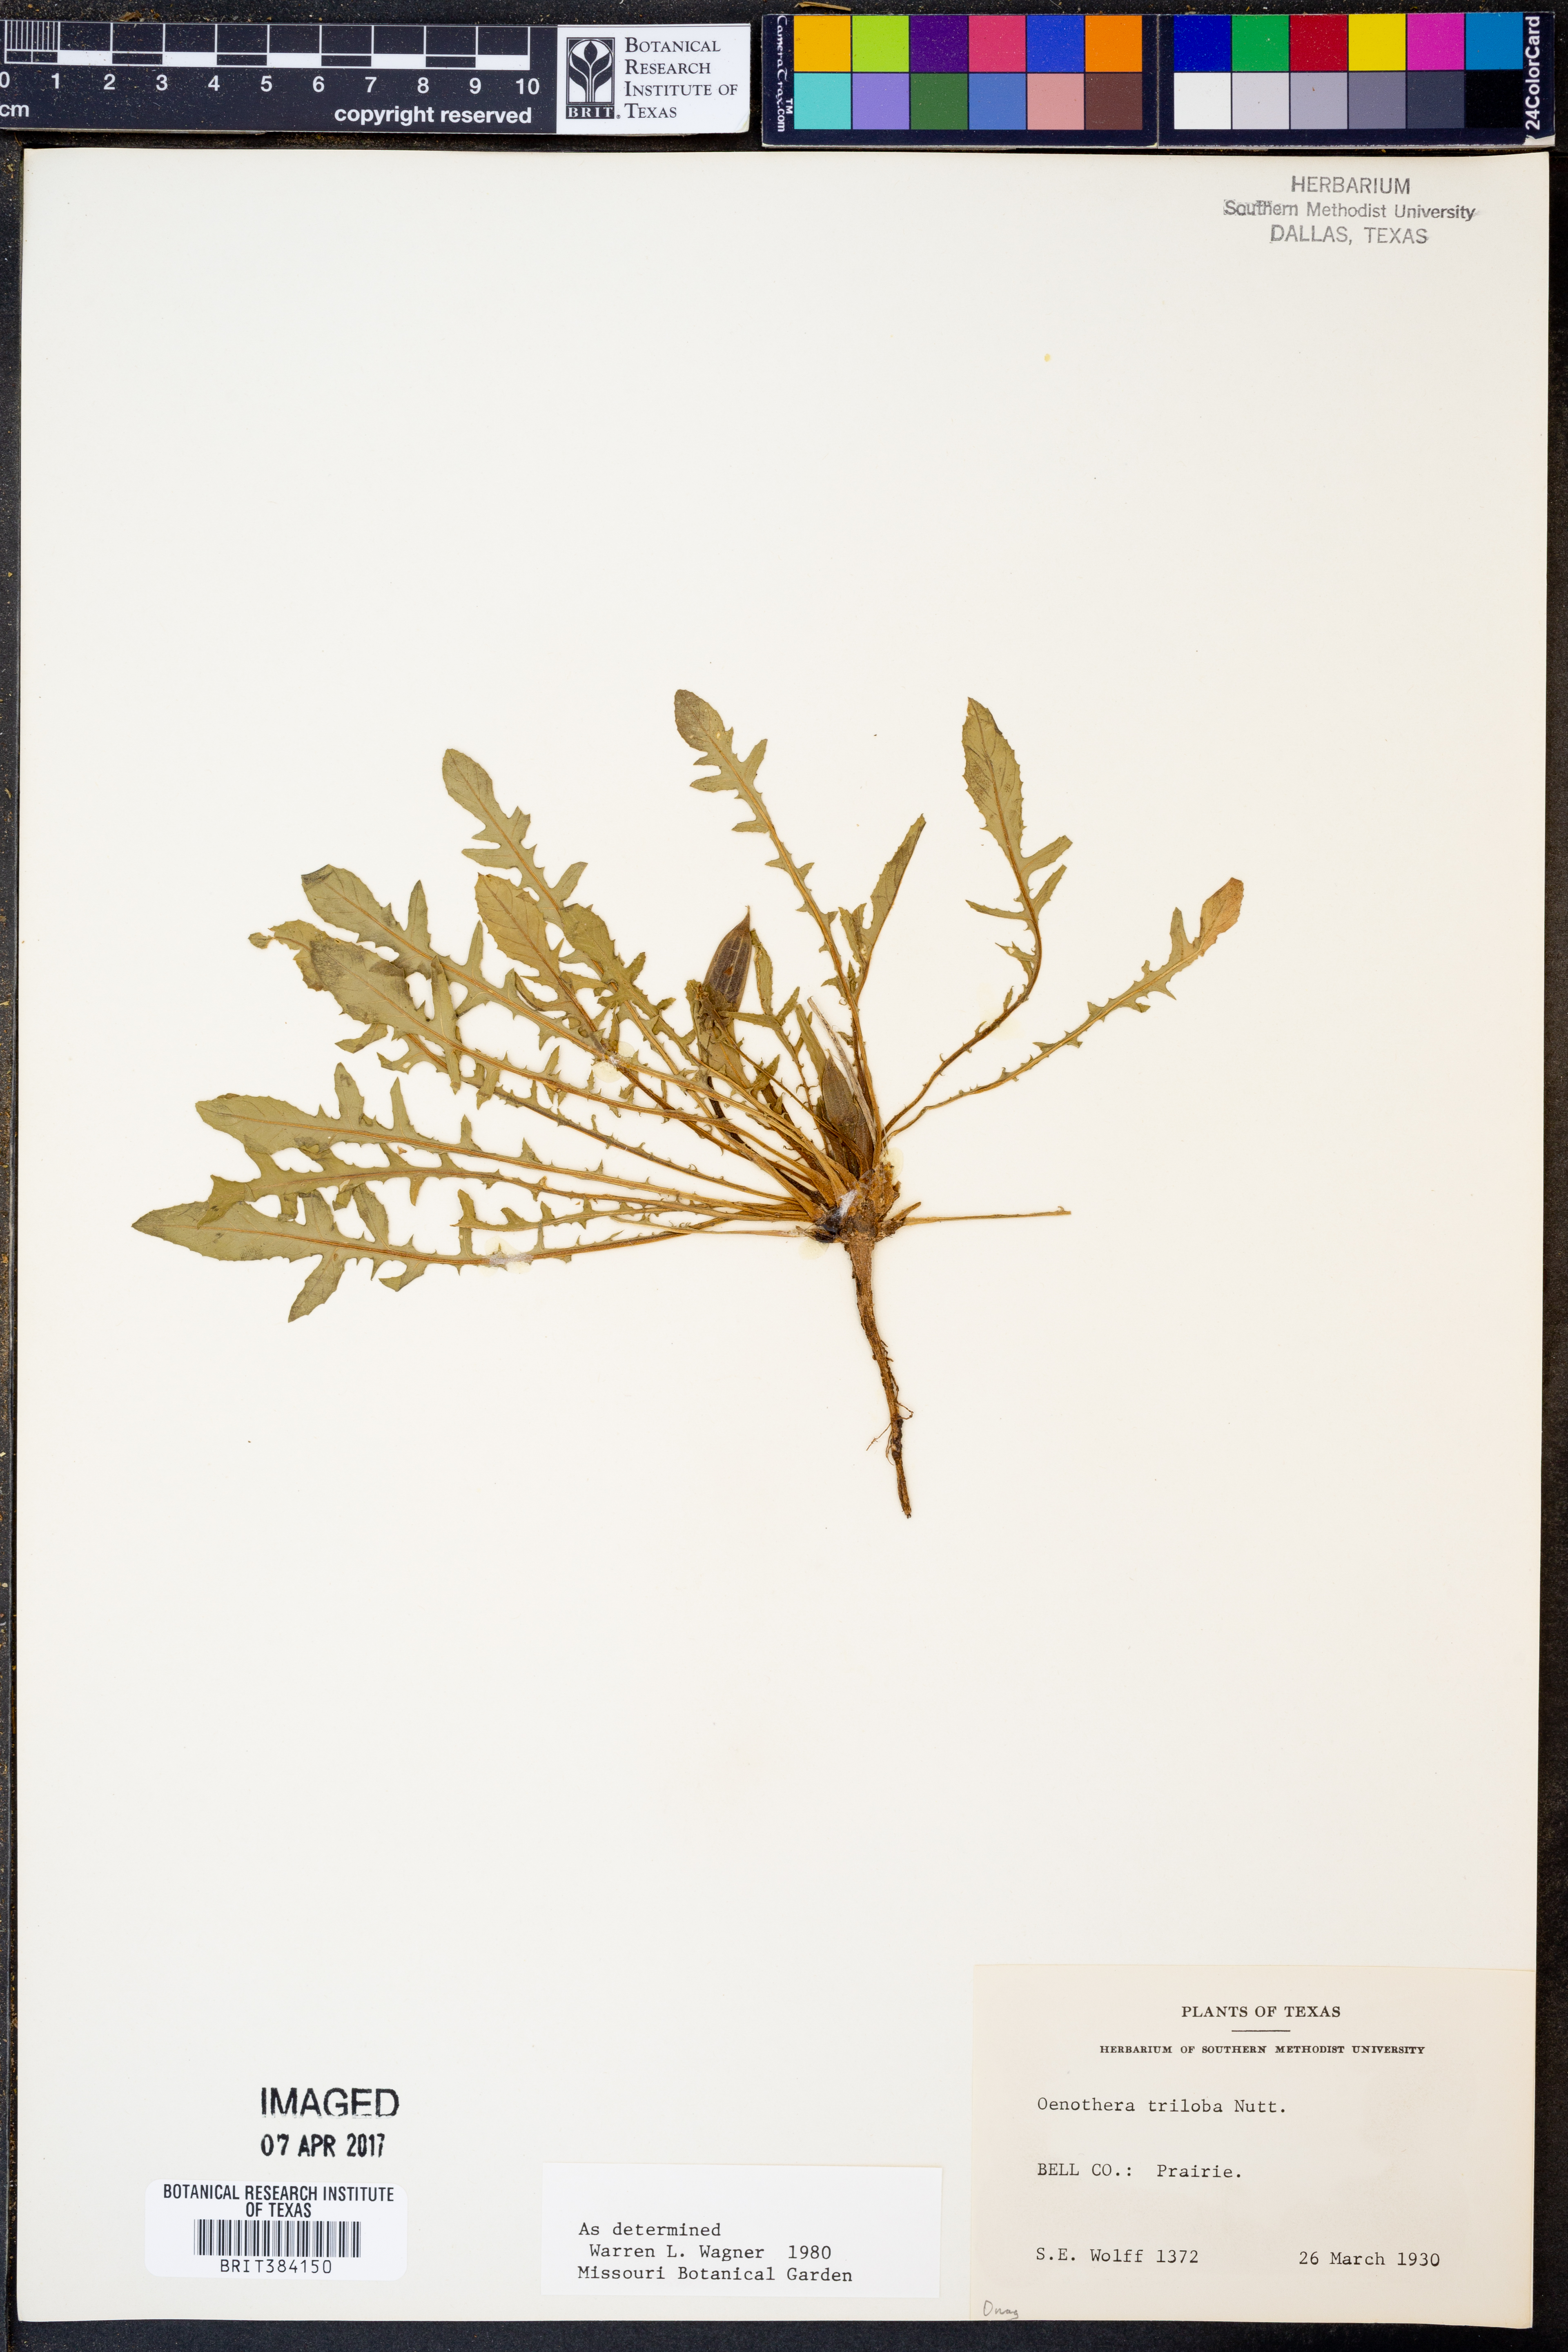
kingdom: Plantae
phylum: Tracheophyta
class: Magnoliopsida
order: Myrtales
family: Onagraceae
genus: Oenothera
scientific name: Oenothera triloba
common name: Sessile evening-primrose
